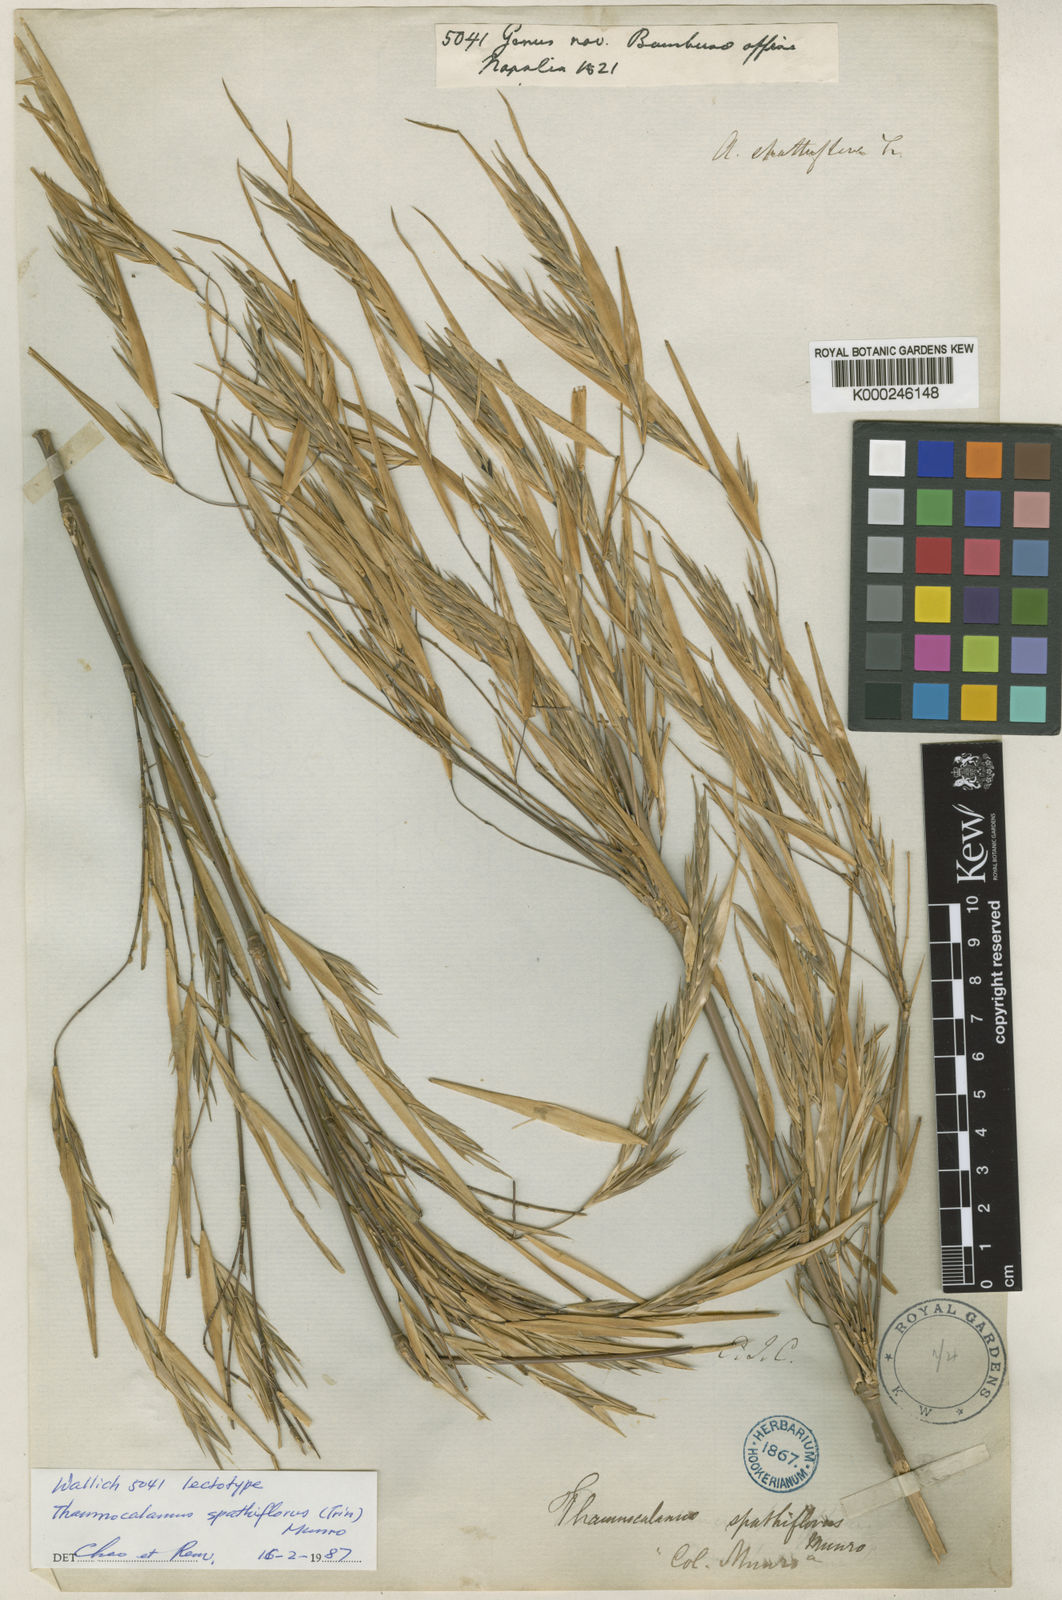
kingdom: Plantae
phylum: Tracheophyta
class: Liliopsida
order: Poales
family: Poaceae
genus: Thamnocalamus
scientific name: Thamnocalamus spathiflorus
